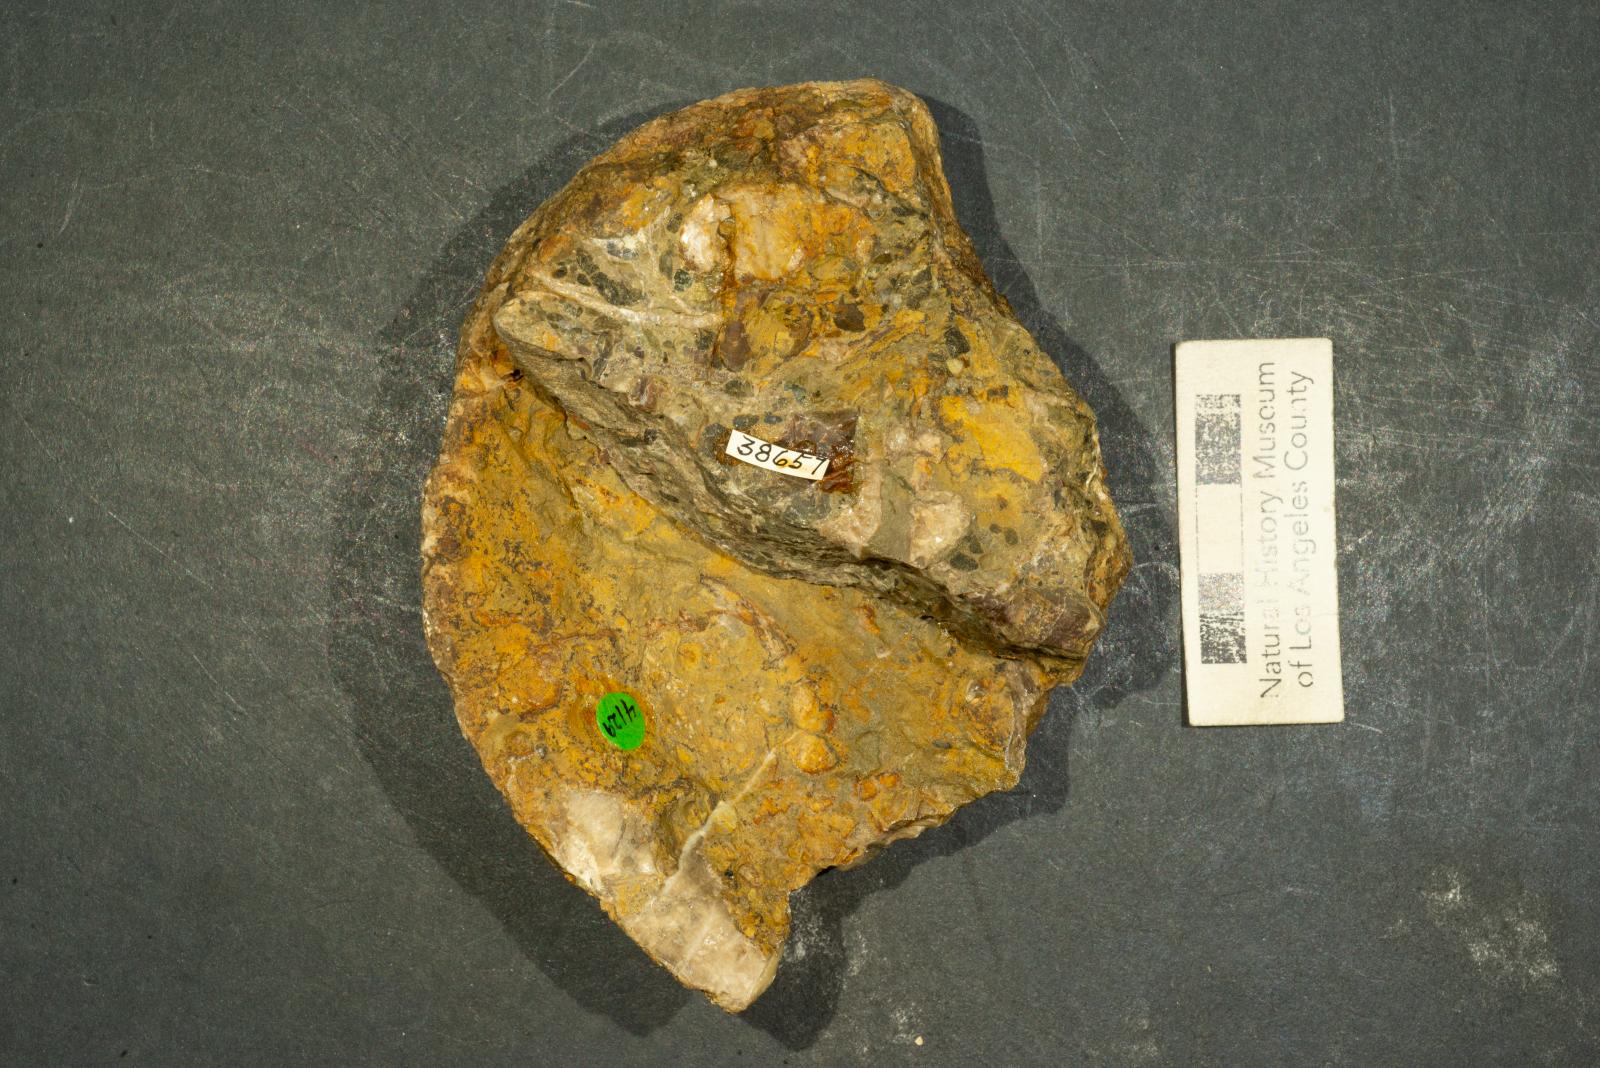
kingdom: Animalia
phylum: Mollusca
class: Bivalvia
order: Trigoniida
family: Steinmanellidae
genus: Popenoella
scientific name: Popenoella hemphilli
